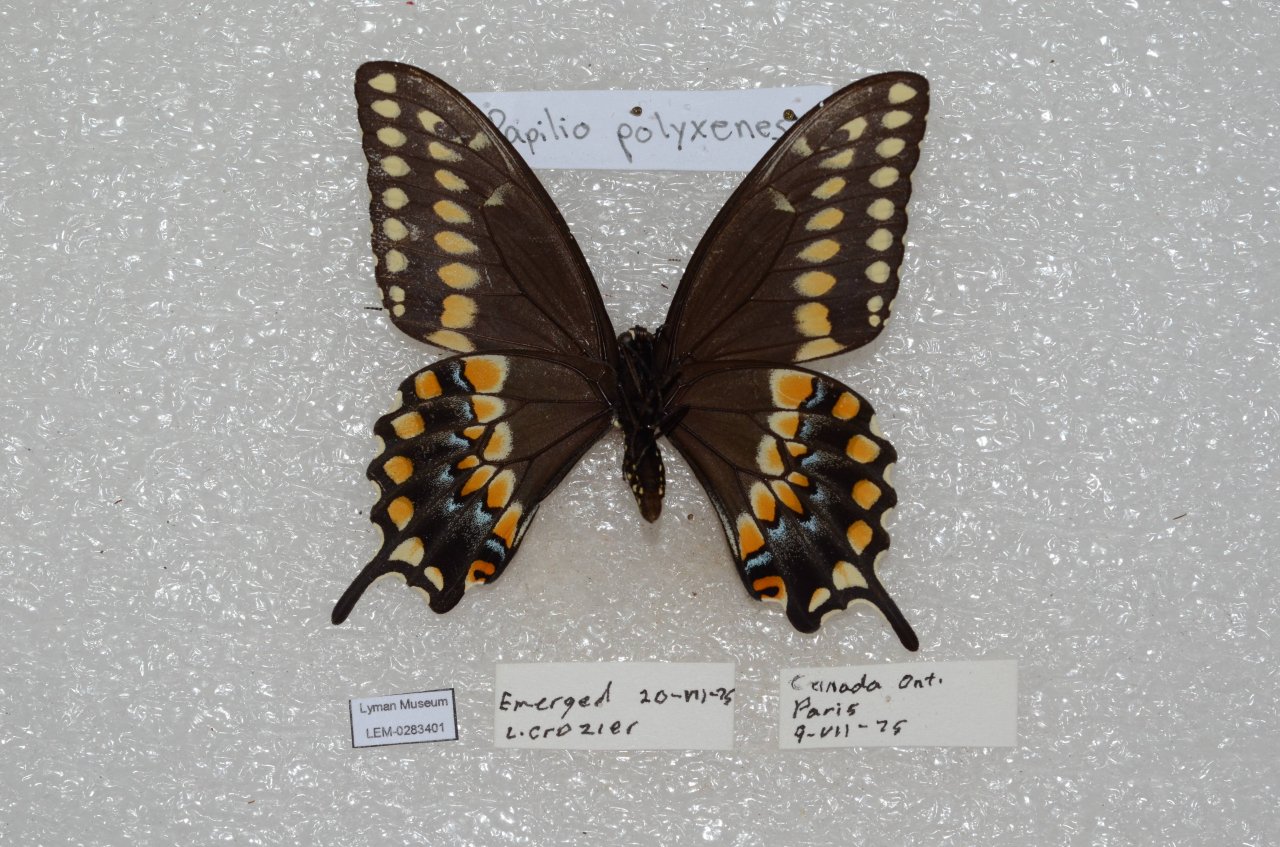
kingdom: Animalia
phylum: Arthropoda
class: Insecta
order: Lepidoptera
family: Papilionidae
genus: Papilio
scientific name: Papilio polyxenes
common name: Black Swallowtail
